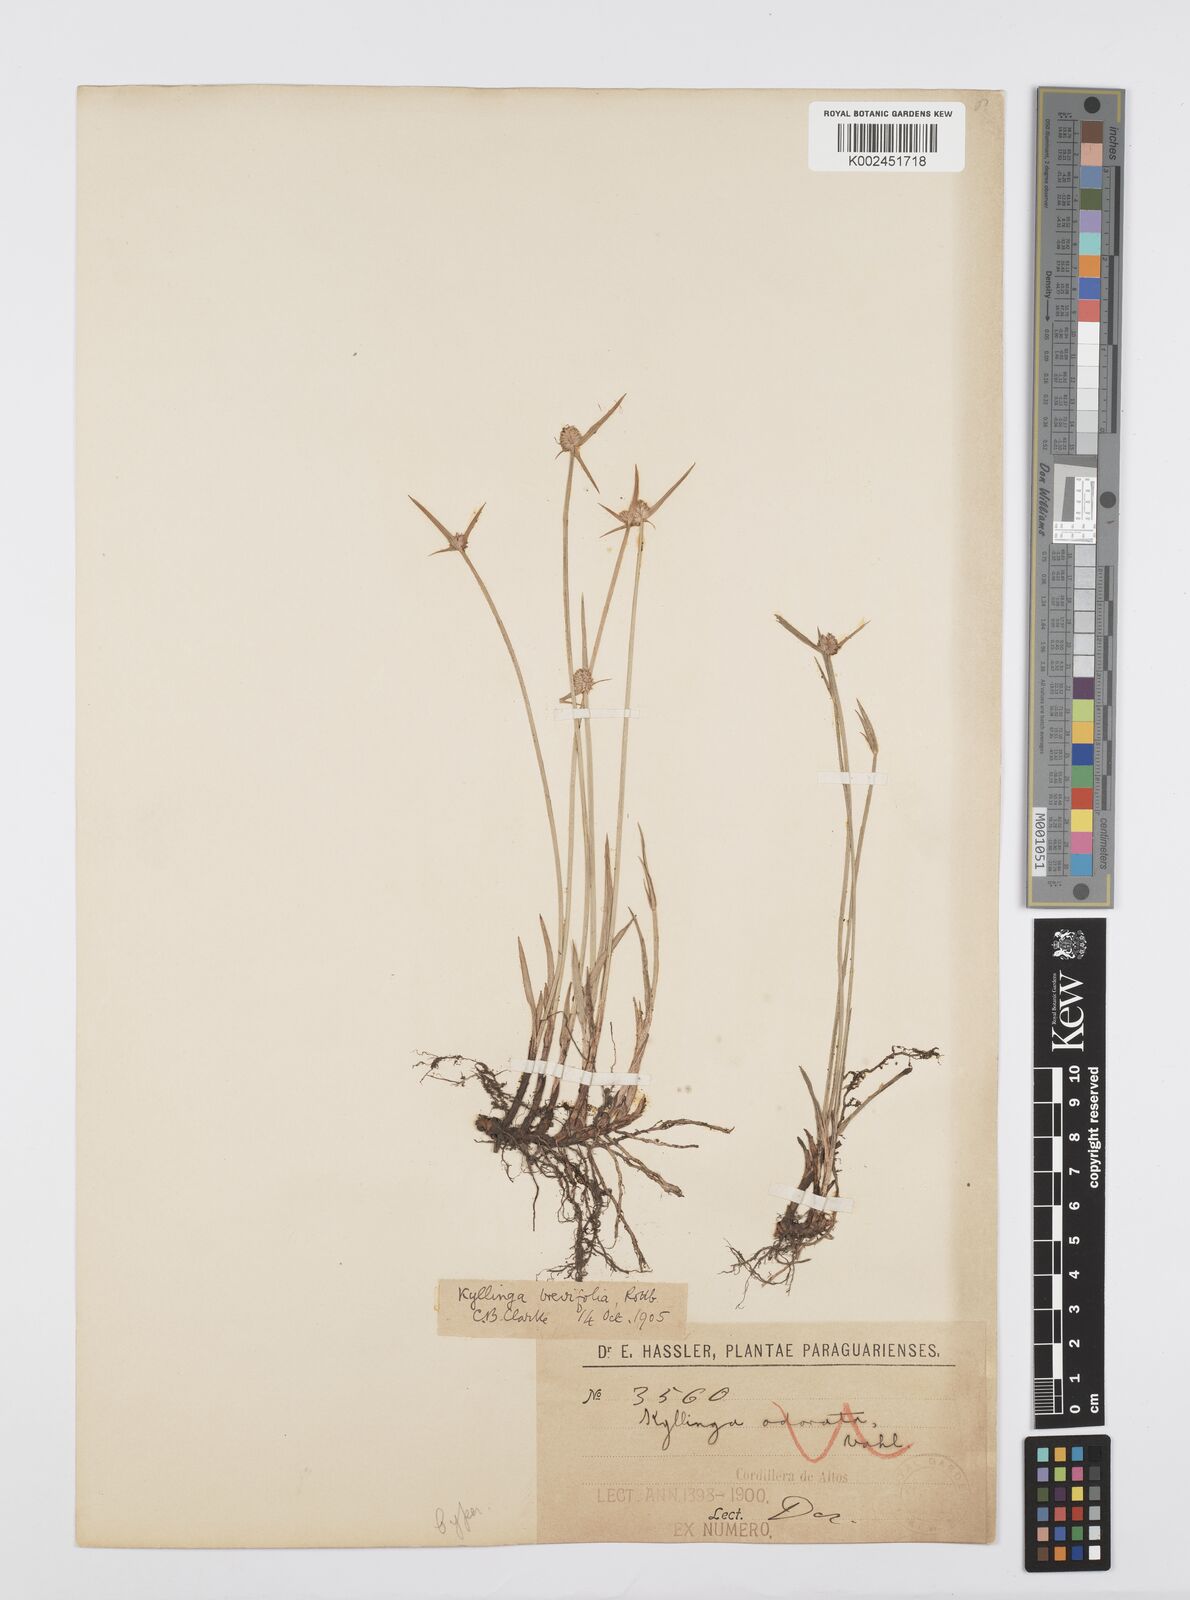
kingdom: Plantae
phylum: Tracheophyta
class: Liliopsida
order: Poales
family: Cyperaceae
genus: Cyperus
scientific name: Cyperus brevifolius
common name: Globe kyllinga
